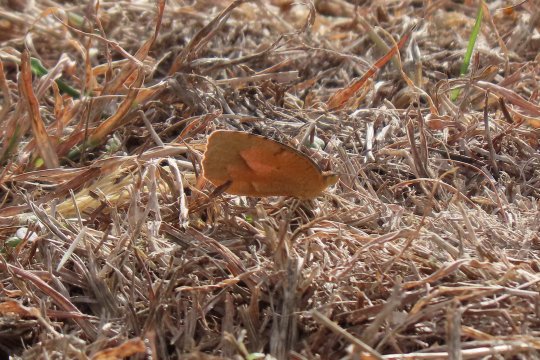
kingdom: Animalia
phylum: Arthropoda
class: Insecta
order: Lepidoptera
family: Pieridae
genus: Abaeis
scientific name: Abaeis nicippe
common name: Sleepy Orange
